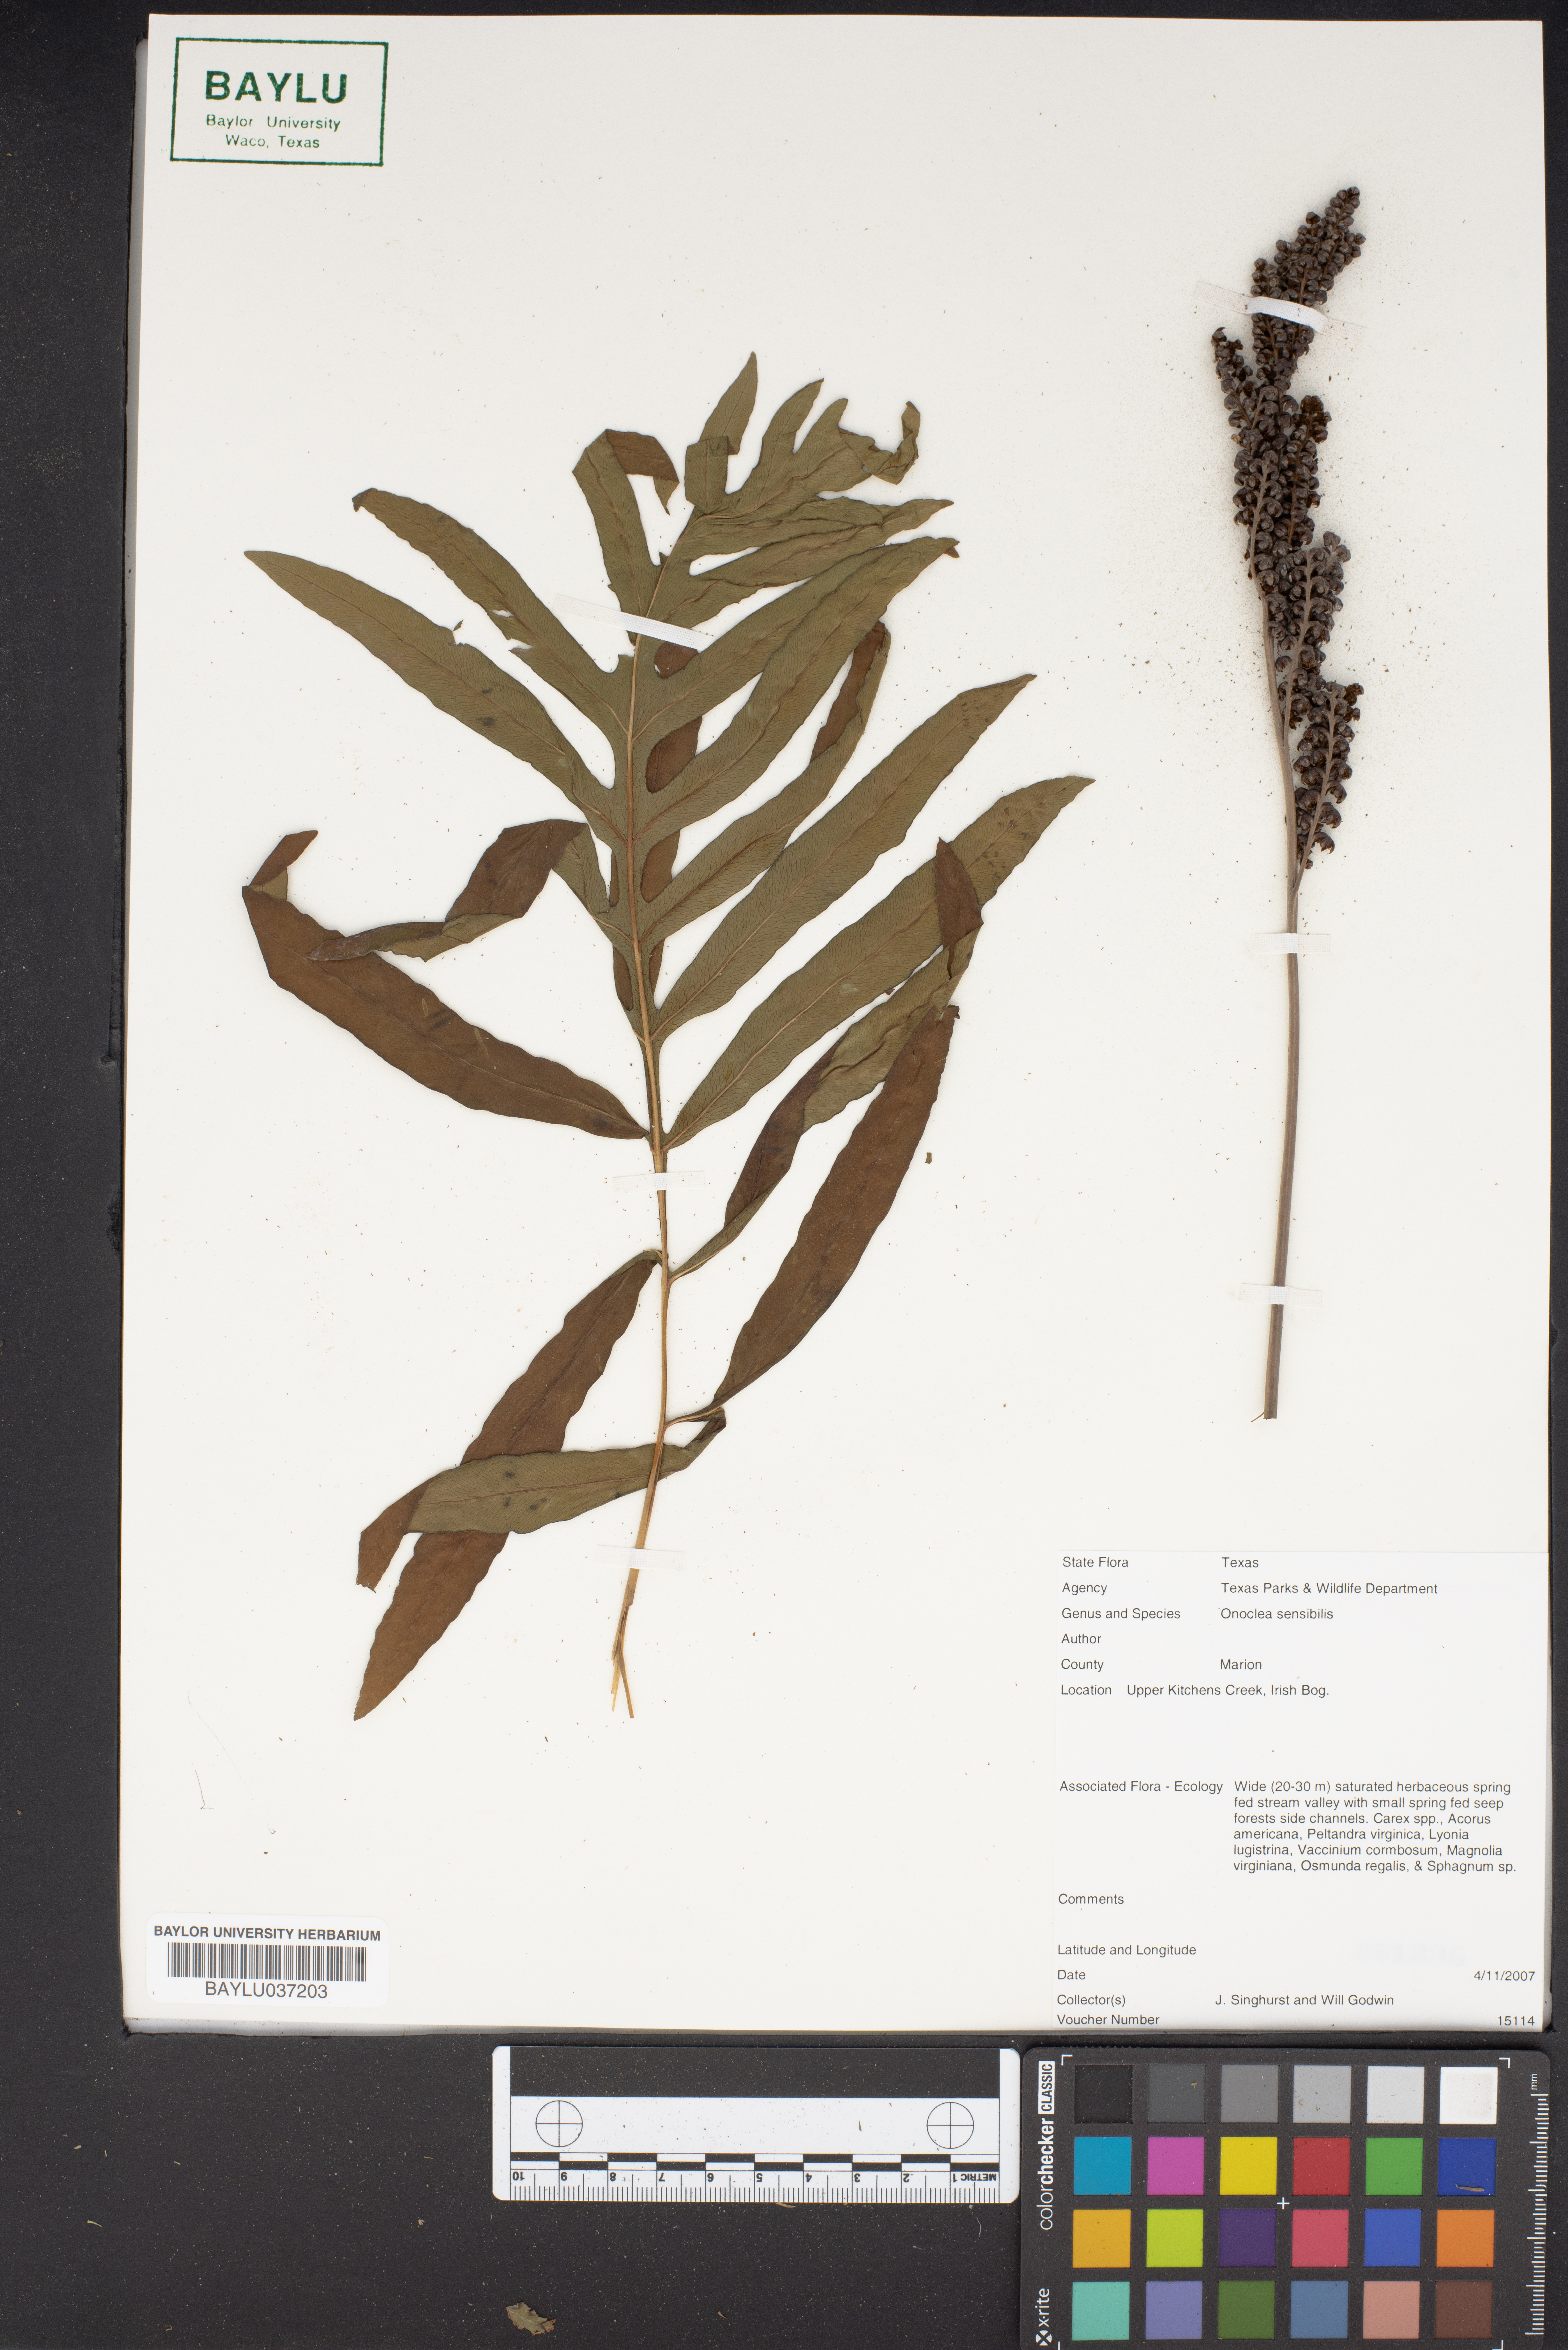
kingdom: Plantae
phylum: Tracheophyta
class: Polypodiopsida
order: Polypodiales
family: Onocleaceae
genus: Onoclea
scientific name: Onoclea sensibilis
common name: Sensitive fern
